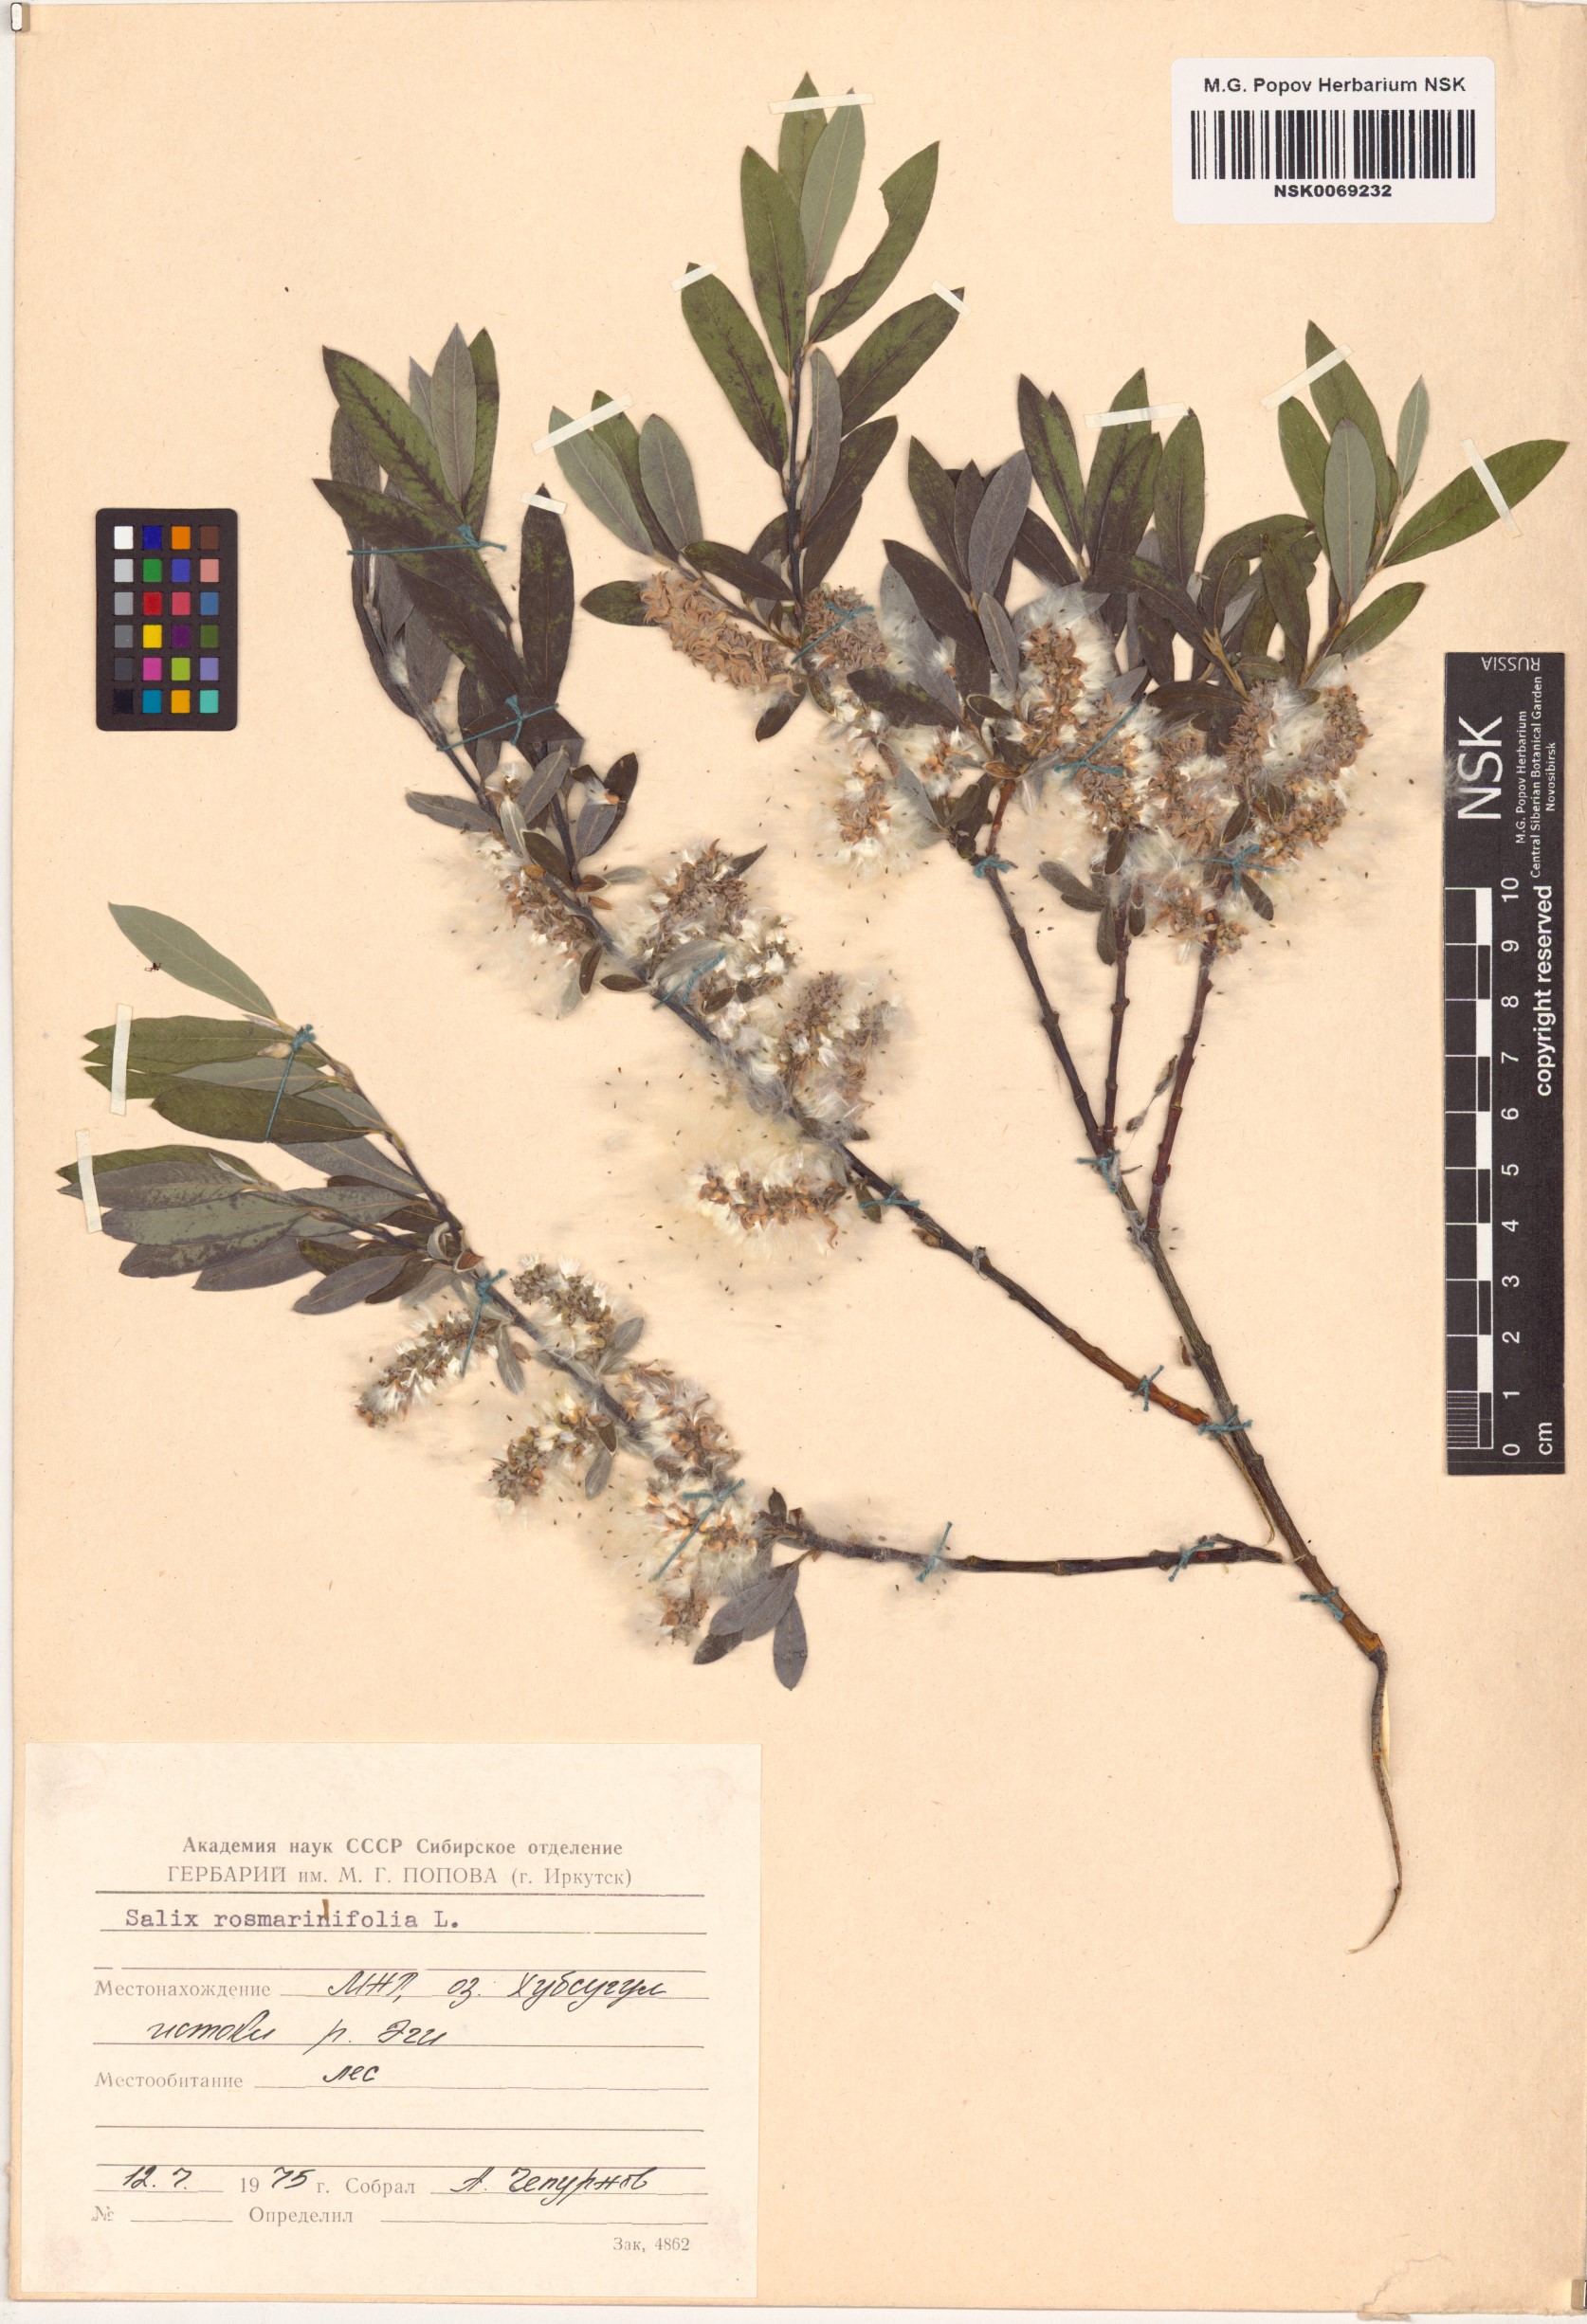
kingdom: Plantae
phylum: Tracheophyta
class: Magnoliopsida
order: Malpighiales
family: Salicaceae
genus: Salix
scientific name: Salix rosmarinifolia
